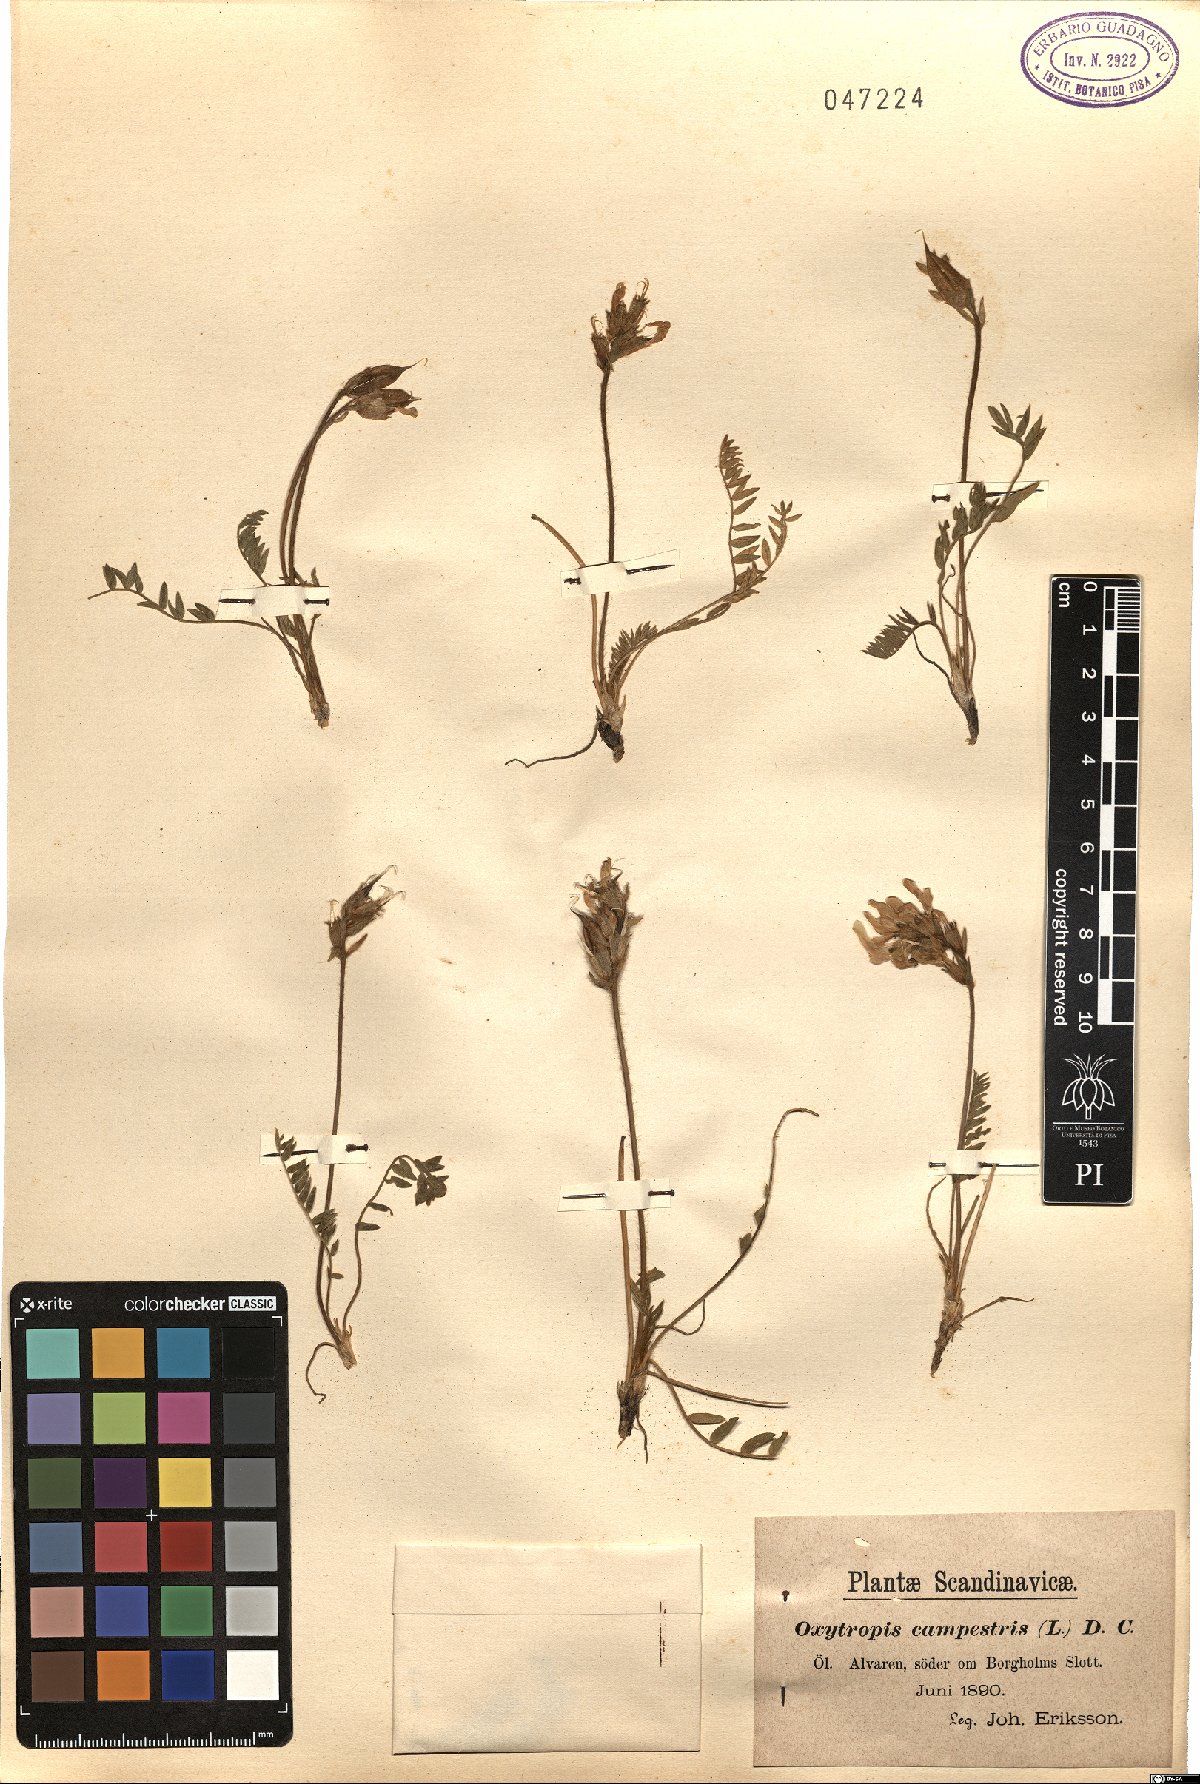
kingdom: Plantae
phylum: Tracheophyta
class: Magnoliopsida
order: Fabales
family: Fabaceae
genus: Oxytropis
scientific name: Oxytropis campestris
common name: Field locoweed
